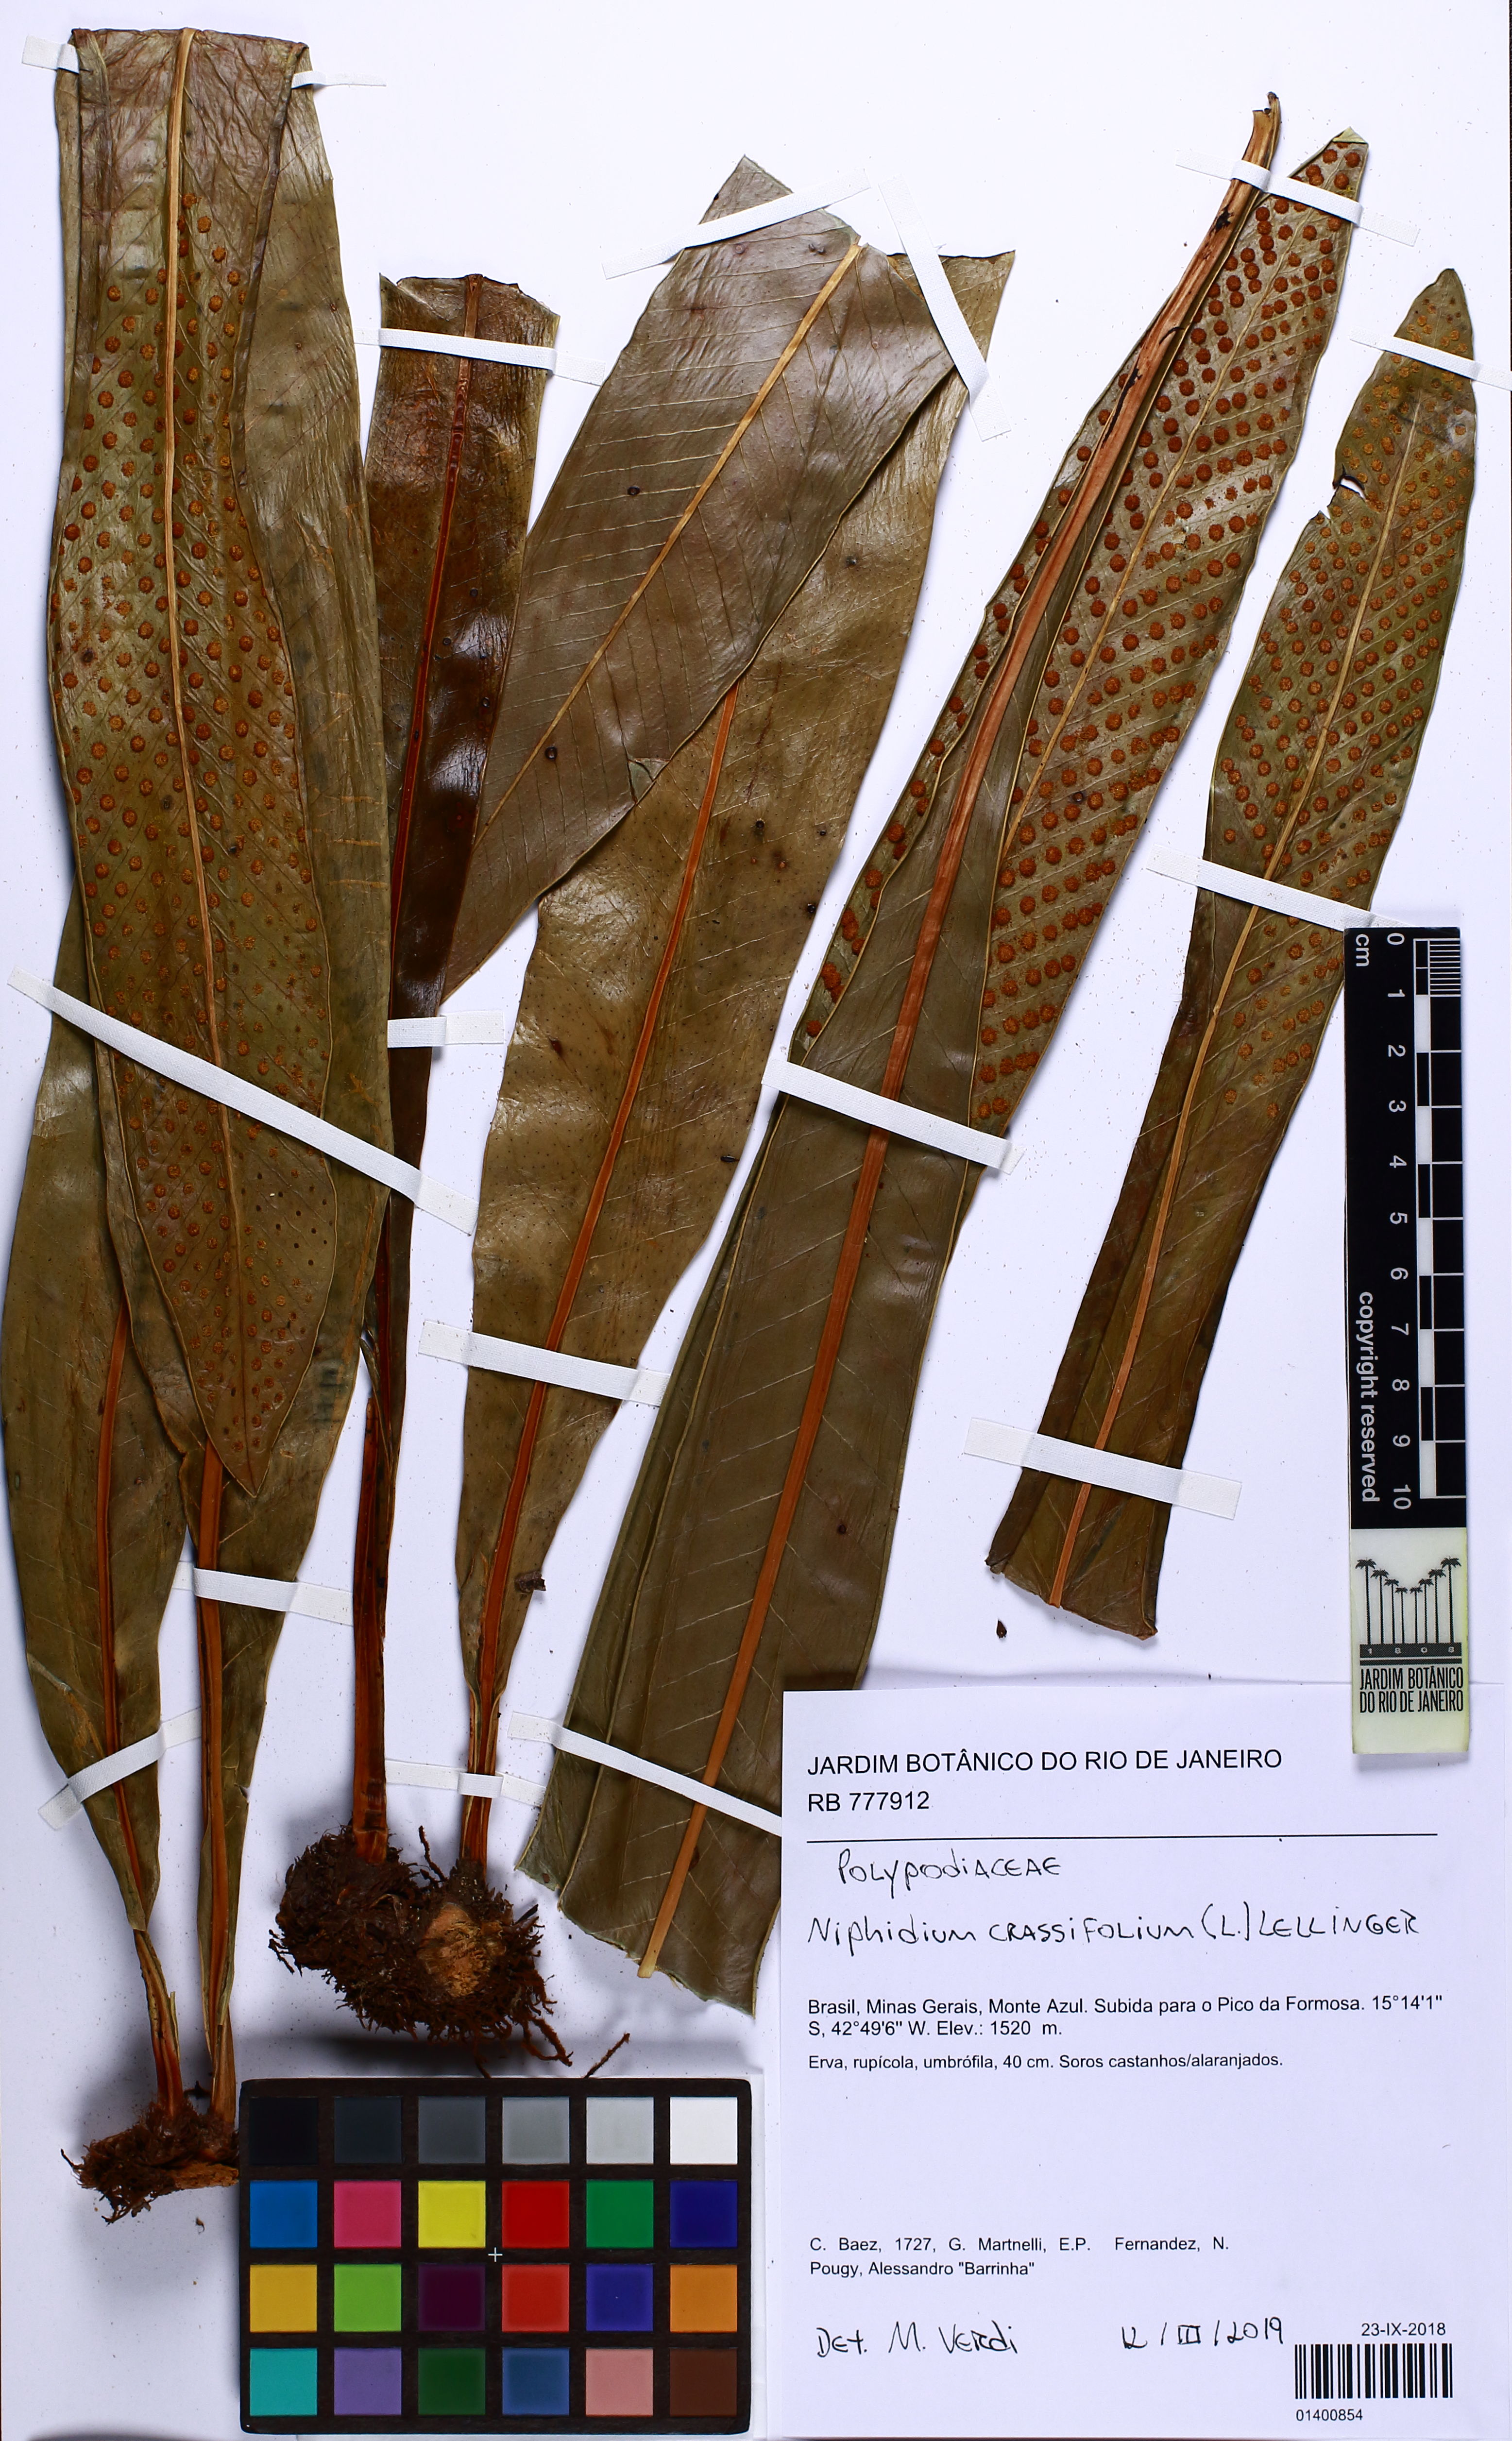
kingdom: Plantae
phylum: Tracheophyta
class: Polypodiopsida
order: Polypodiales
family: Polypodiaceae
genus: Niphidium
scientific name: Niphidium crassifolium
